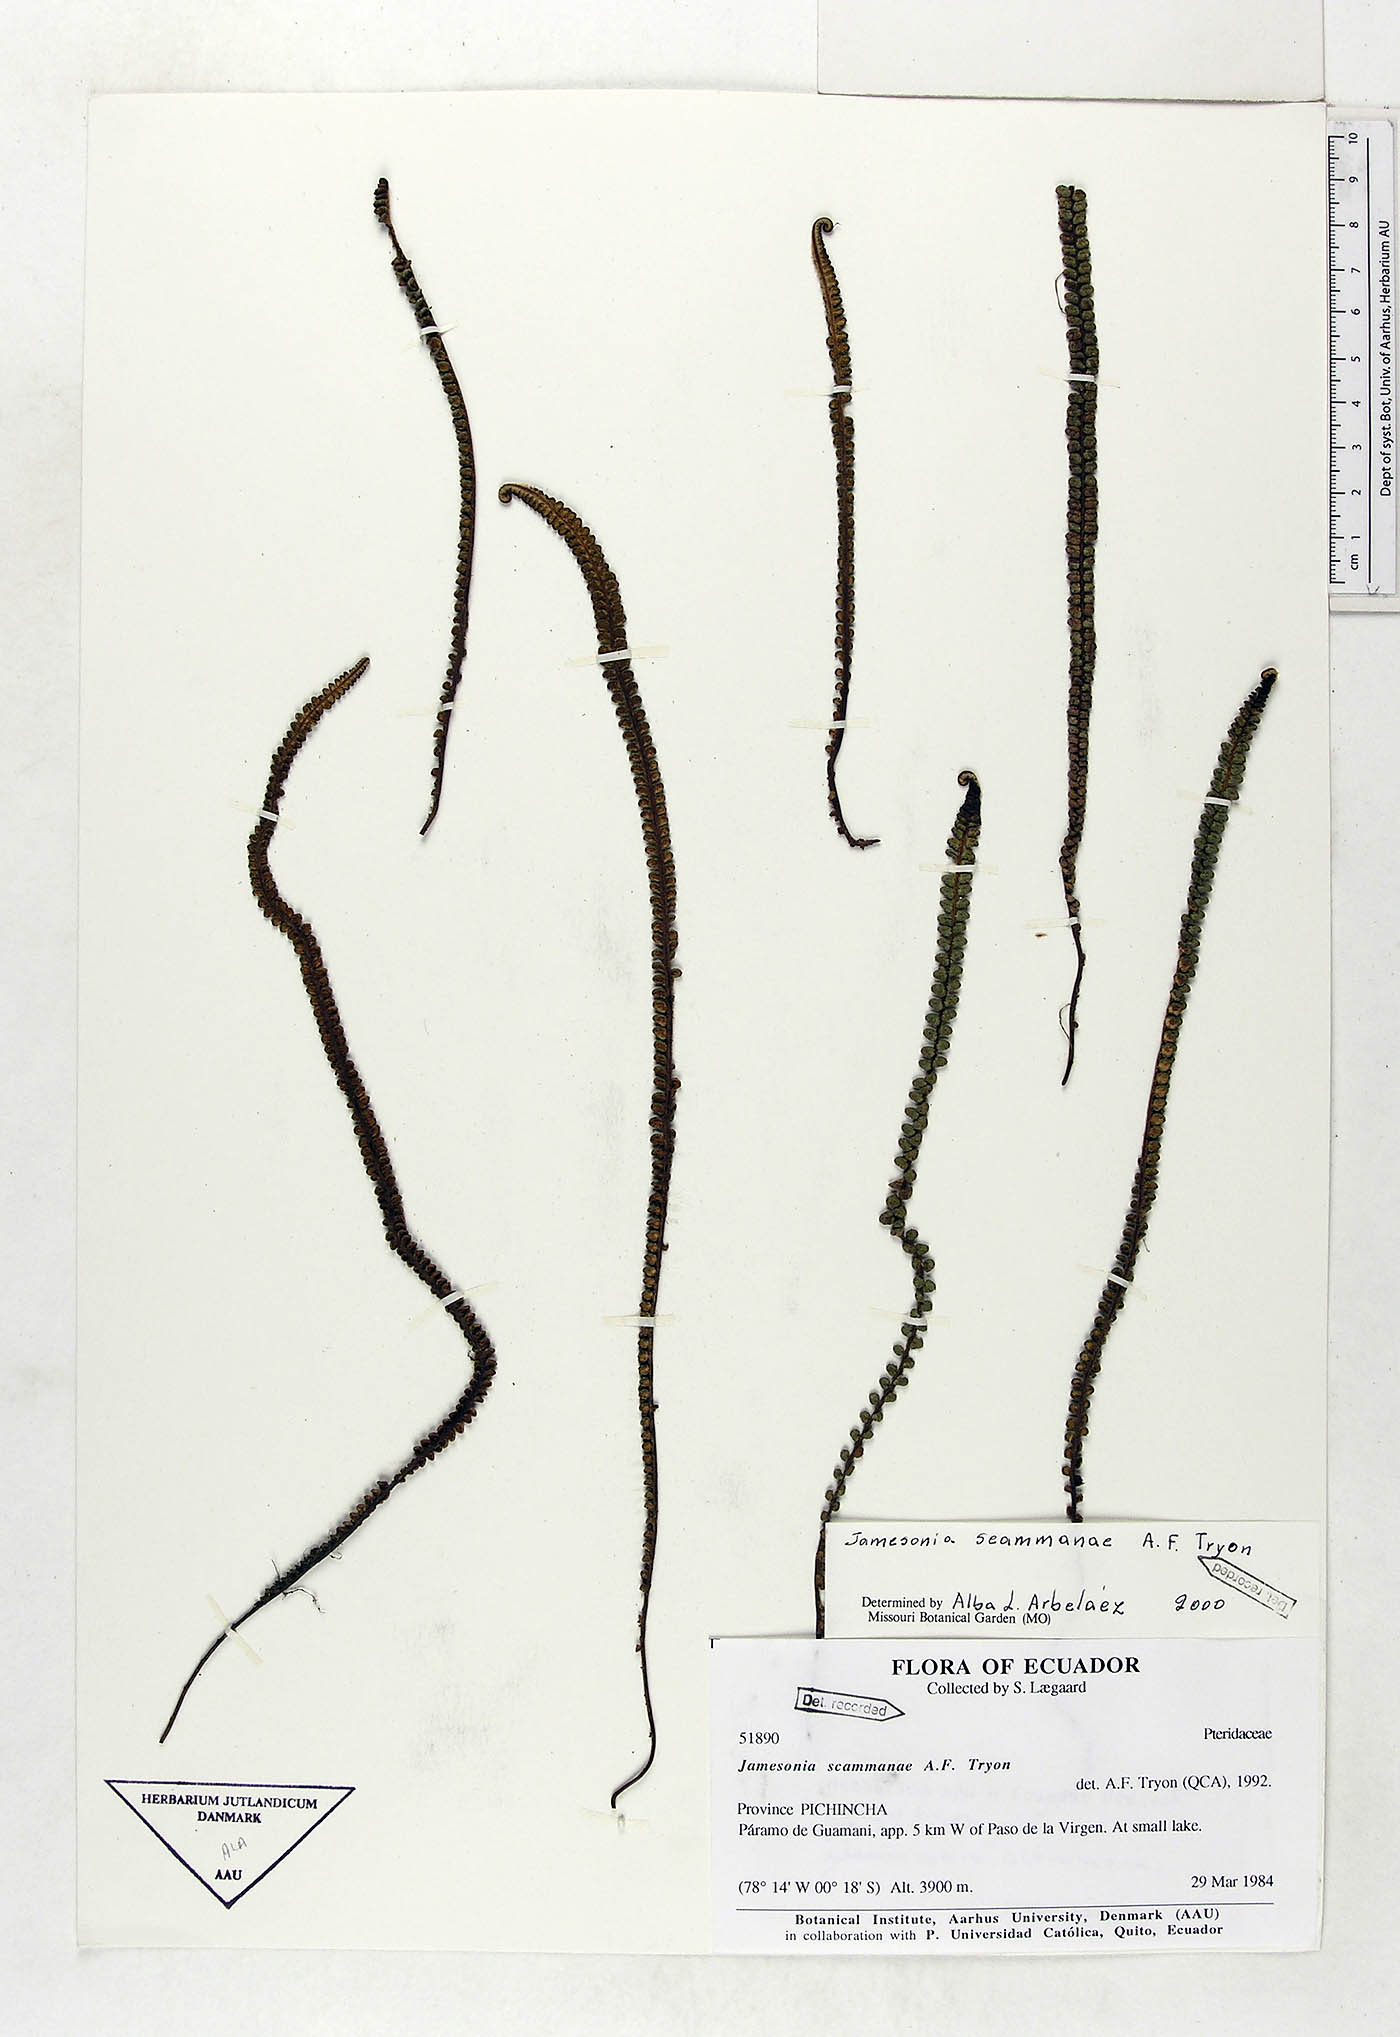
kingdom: Plantae
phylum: Tracheophyta
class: Polypodiopsida
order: Polypodiales
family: Pteridaceae
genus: Jamesonia
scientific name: Jamesonia scammanae
